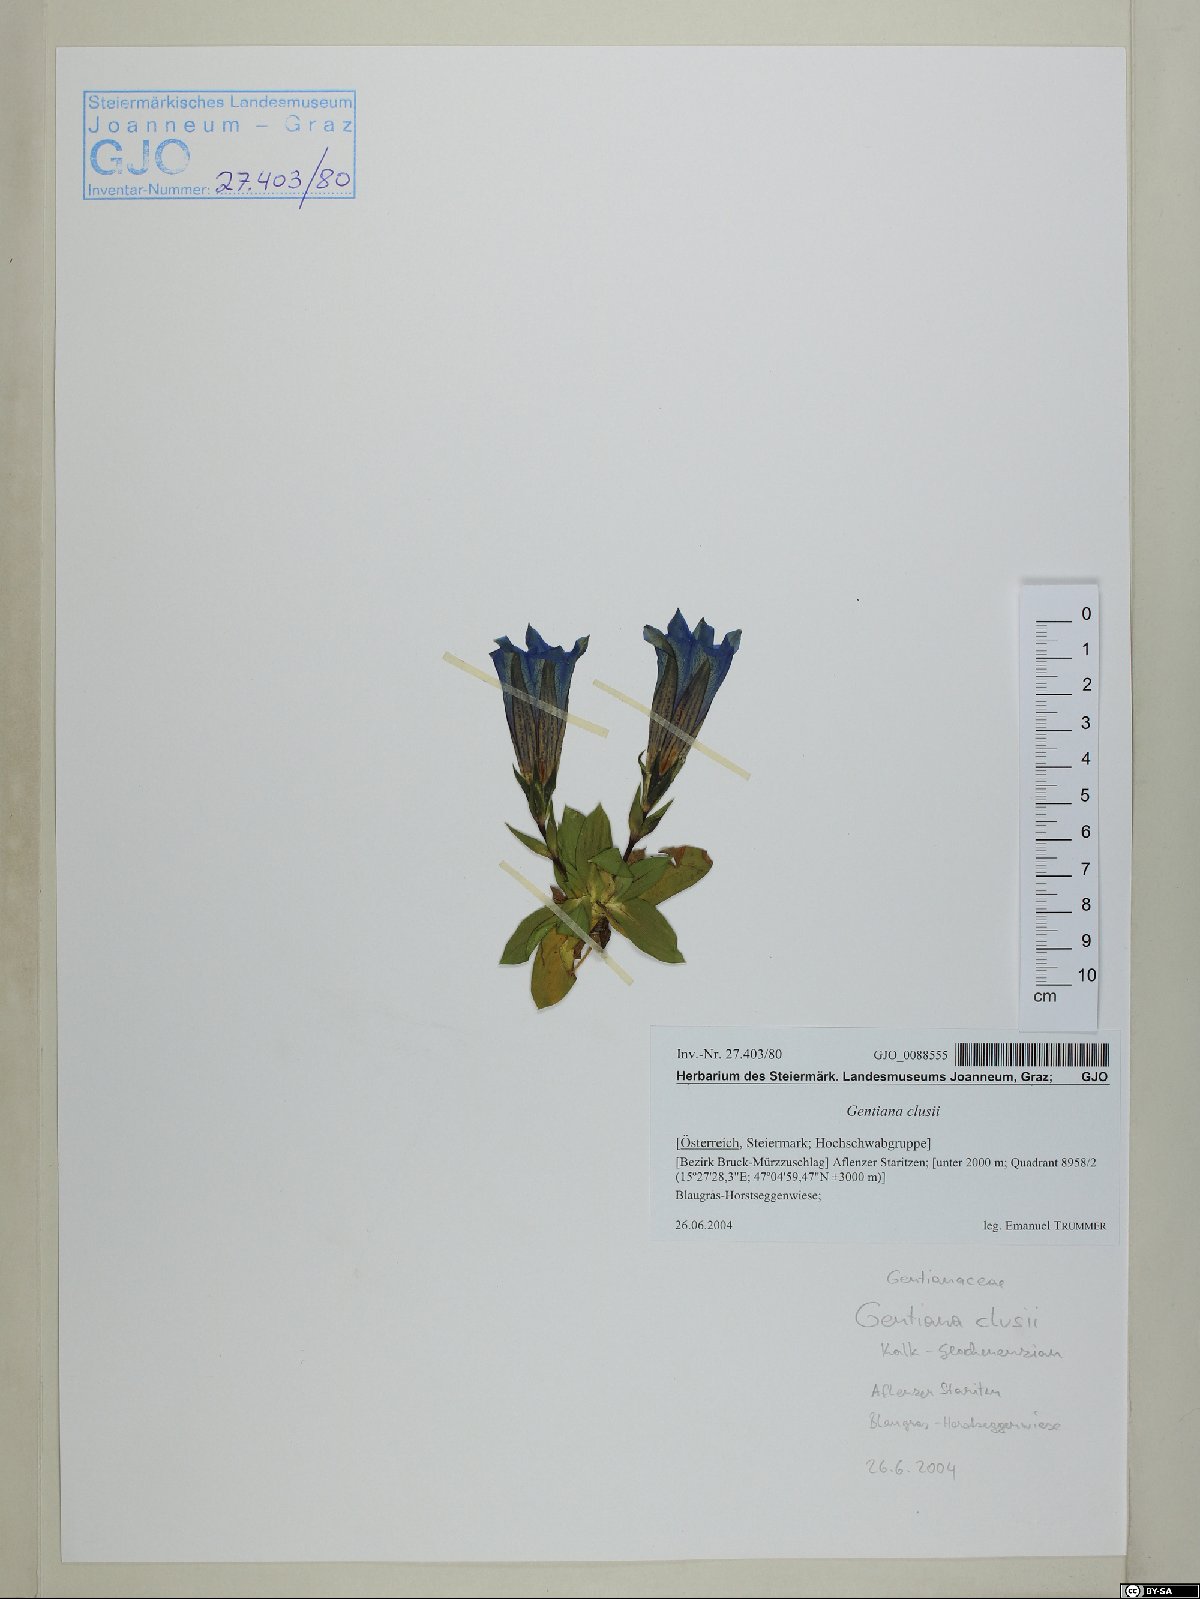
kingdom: Plantae
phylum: Tracheophyta
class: Magnoliopsida
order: Gentianales
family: Gentianaceae
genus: Gentiana
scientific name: Gentiana clusii
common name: Trumpet gentian
